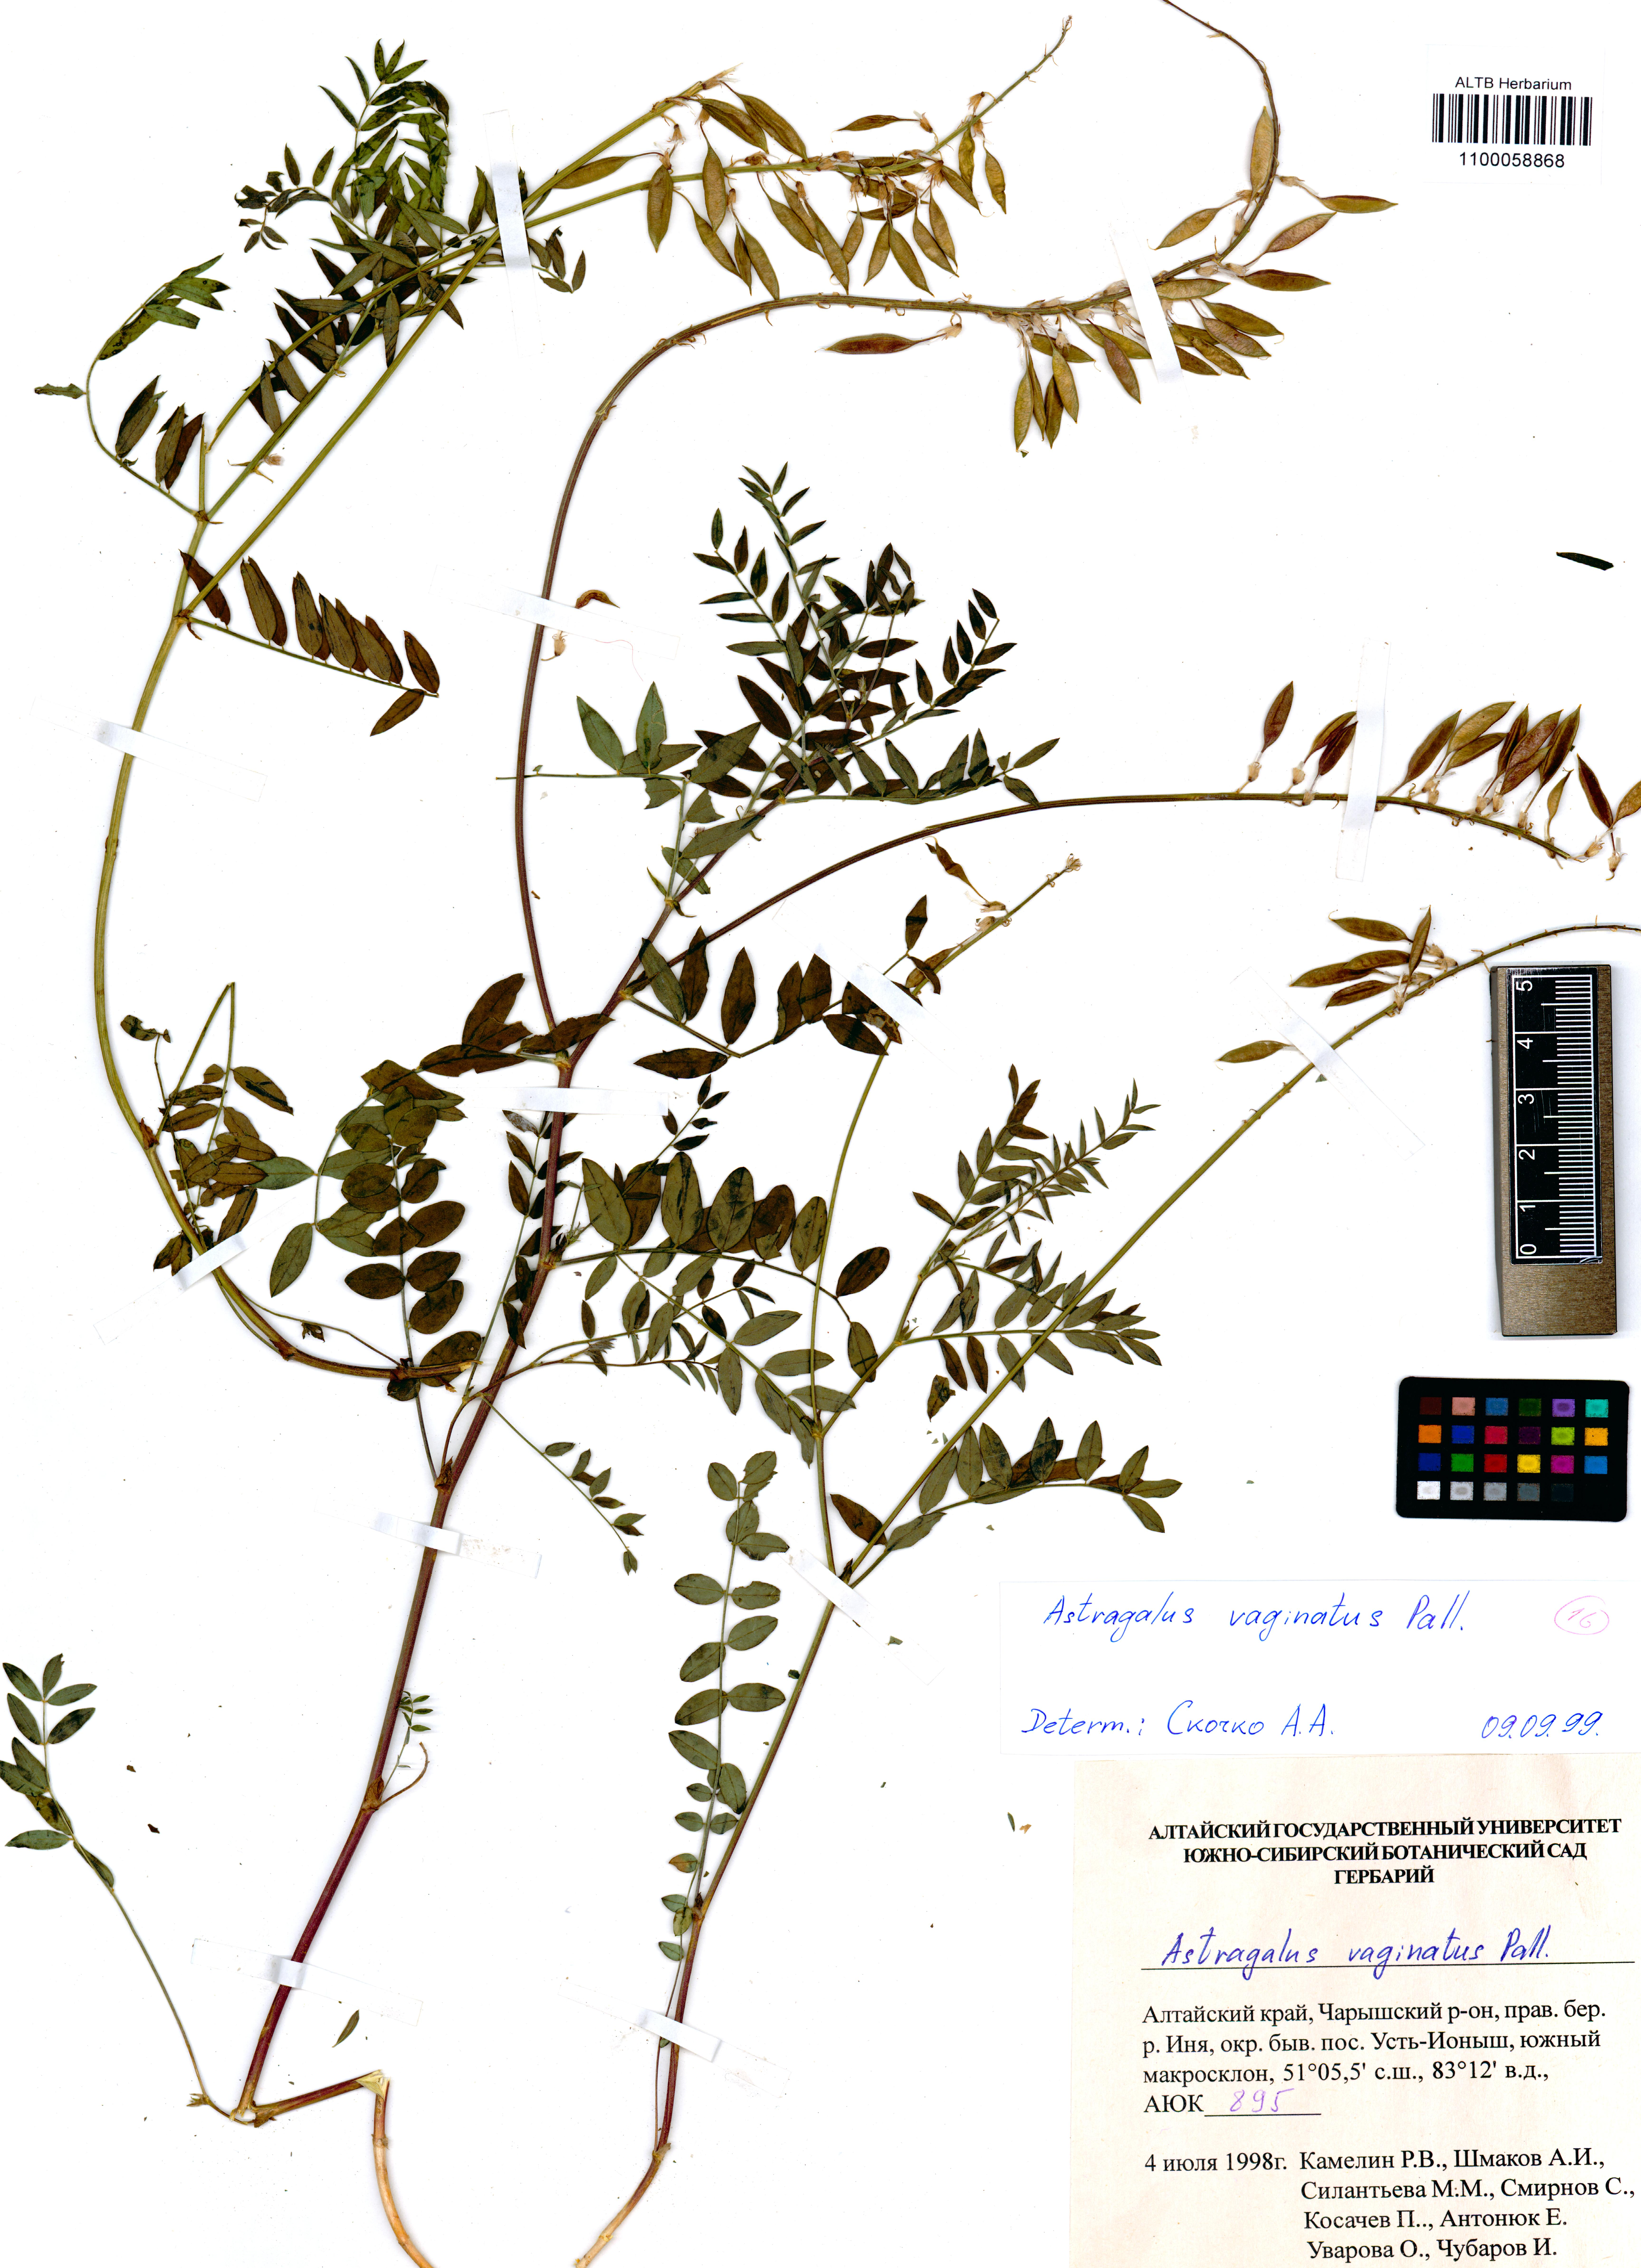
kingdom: Plantae
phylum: Tracheophyta
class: Magnoliopsida
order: Fabales
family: Fabaceae
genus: Astragalus
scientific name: Astragalus vaginatus
